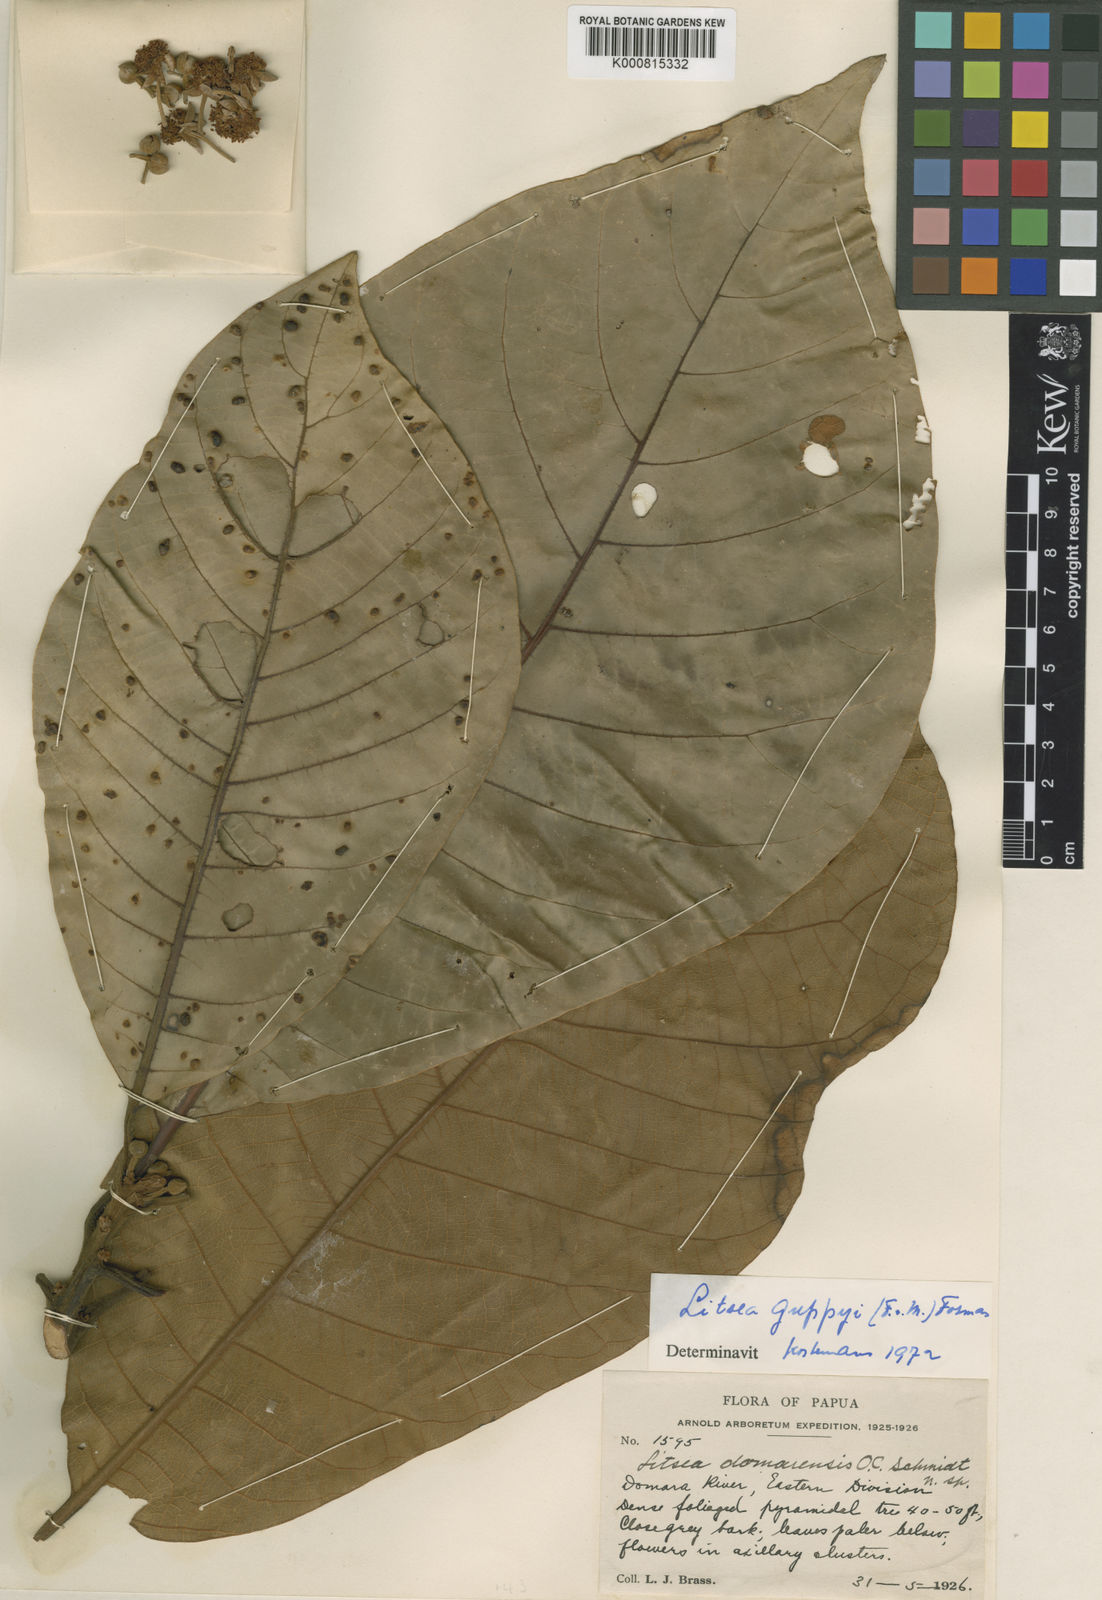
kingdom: Plantae
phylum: Tracheophyta
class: Magnoliopsida
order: Laurales
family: Lauraceae
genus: Litsea
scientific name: Litsea guppyi
